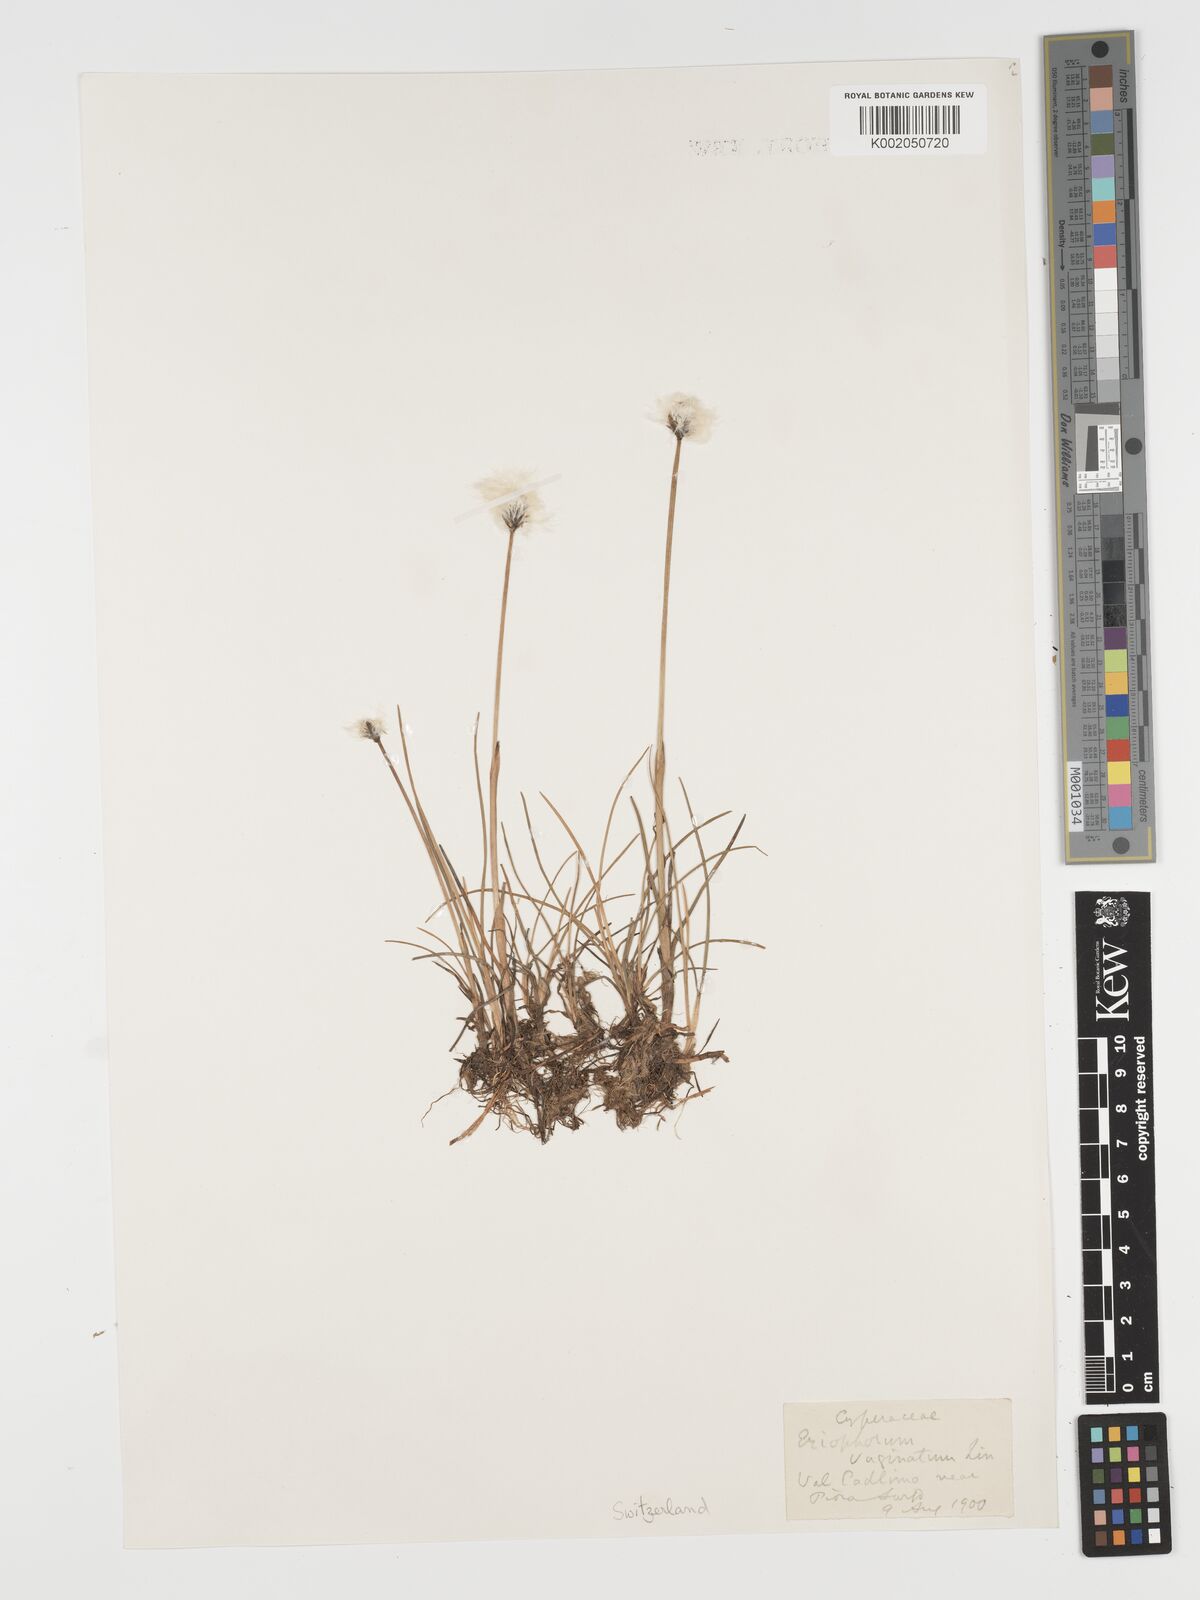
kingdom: Plantae
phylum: Tracheophyta
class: Liliopsida
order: Poales
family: Cyperaceae
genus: Eriophorum
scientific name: Eriophorum vaginatum
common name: Hare's-tail cottongrass
